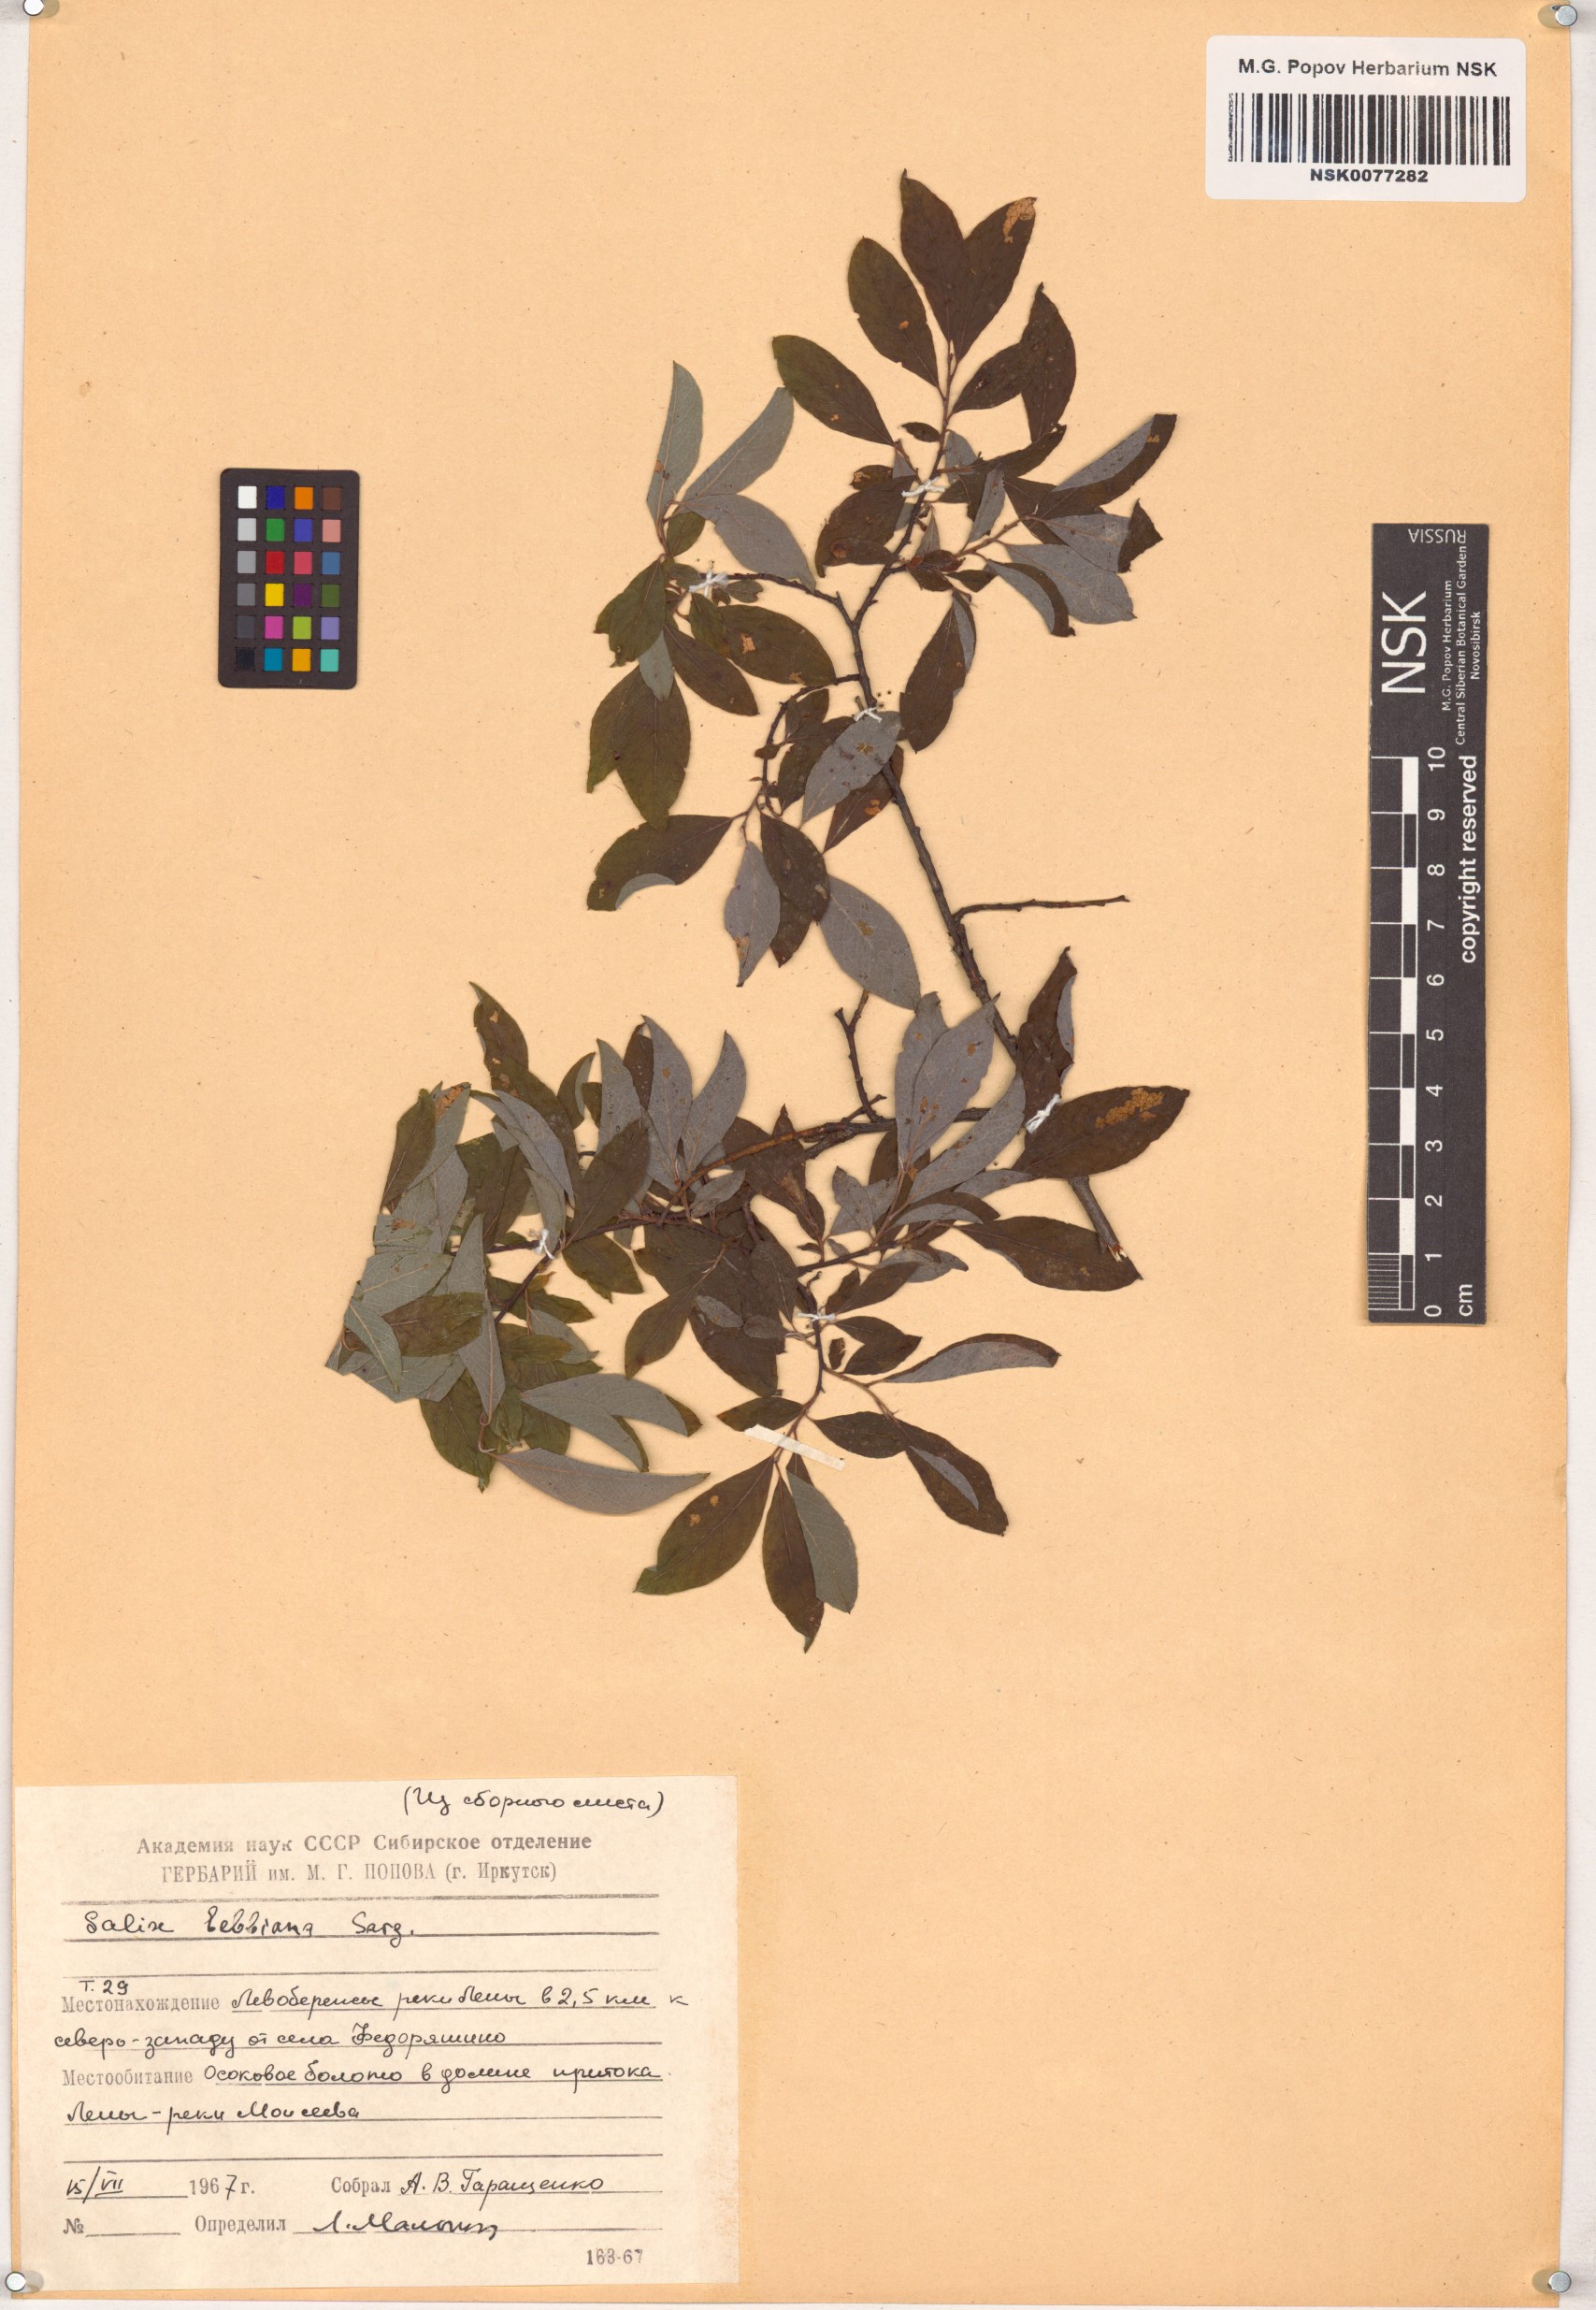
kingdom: Plantae
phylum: Tracheophyta
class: Magnoliopsida
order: Malpighiales
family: Salicaceae
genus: Salix
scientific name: Salix bebbiana
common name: Bebb's willow
